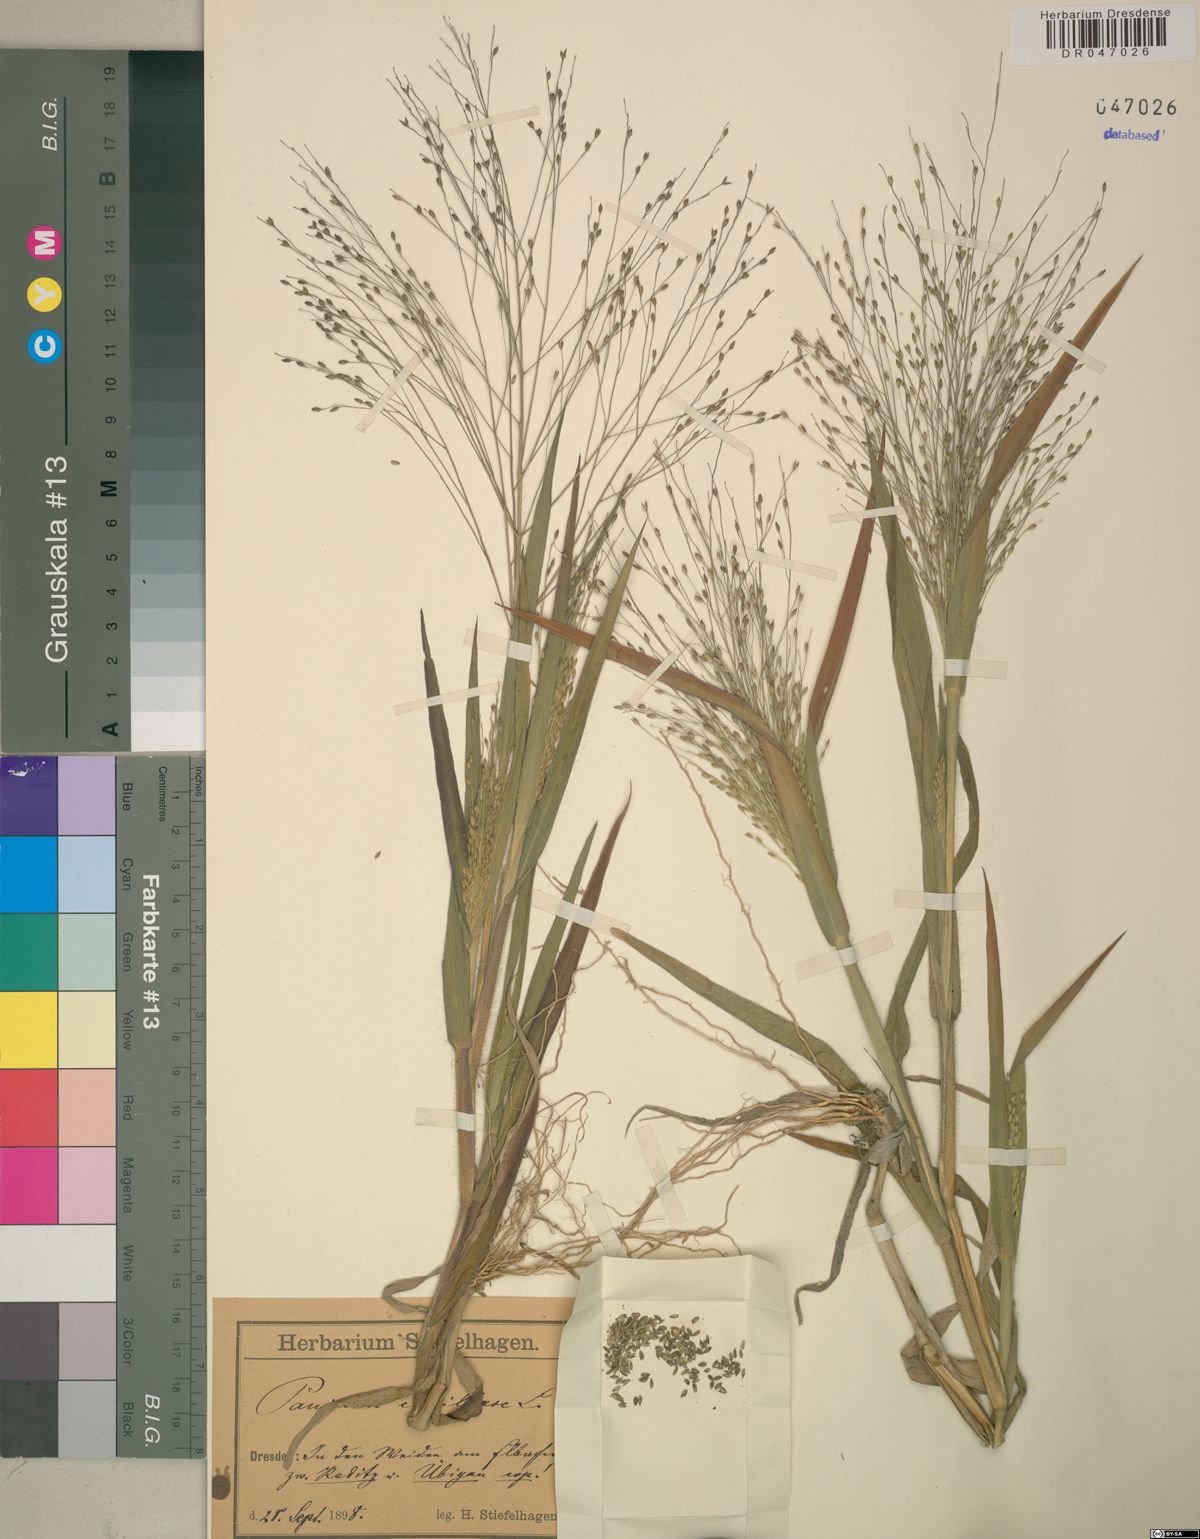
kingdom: Plantae
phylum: Tracheophyta
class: Liliopsida
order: Poales
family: Poaceae
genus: Panicum
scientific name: Panicum capillare
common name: Witch-grass
